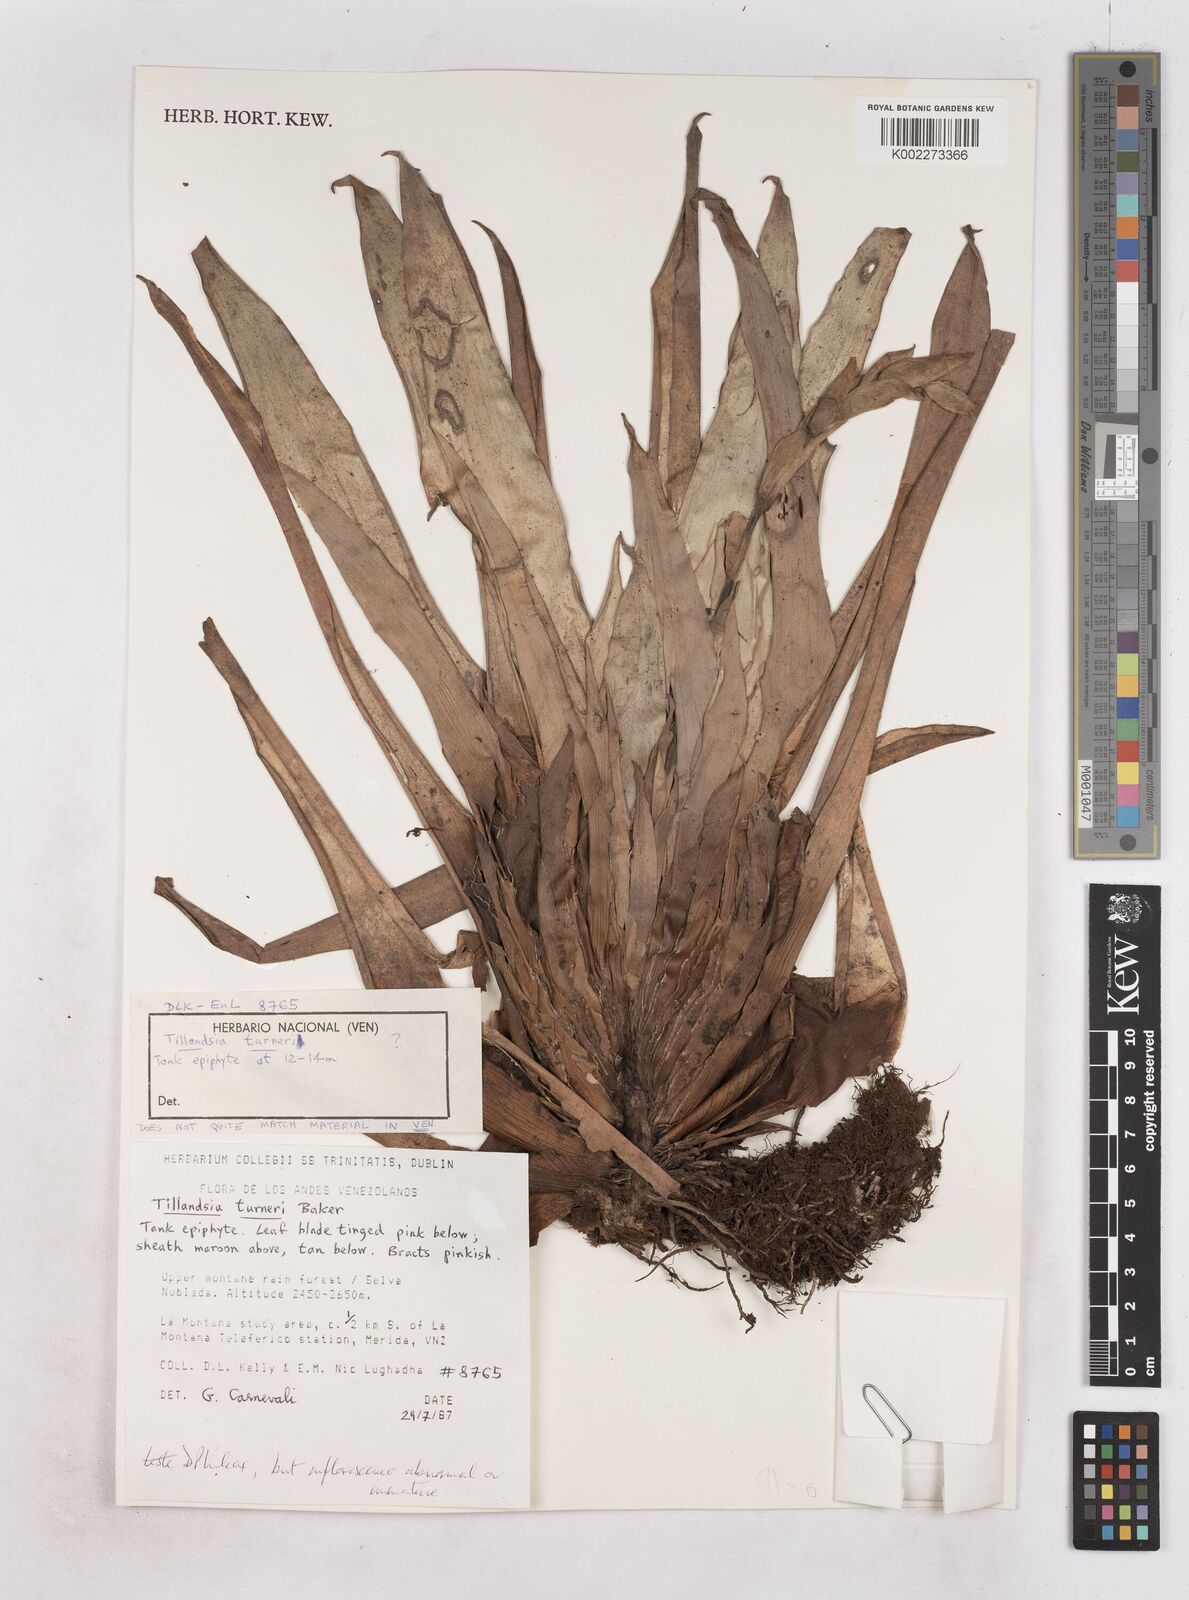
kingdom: Plantae
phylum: Tracheophyta
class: Liliopsida
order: Poales
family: Bromeliaceae
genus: Tillandsia
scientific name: Tillandsia turneri
